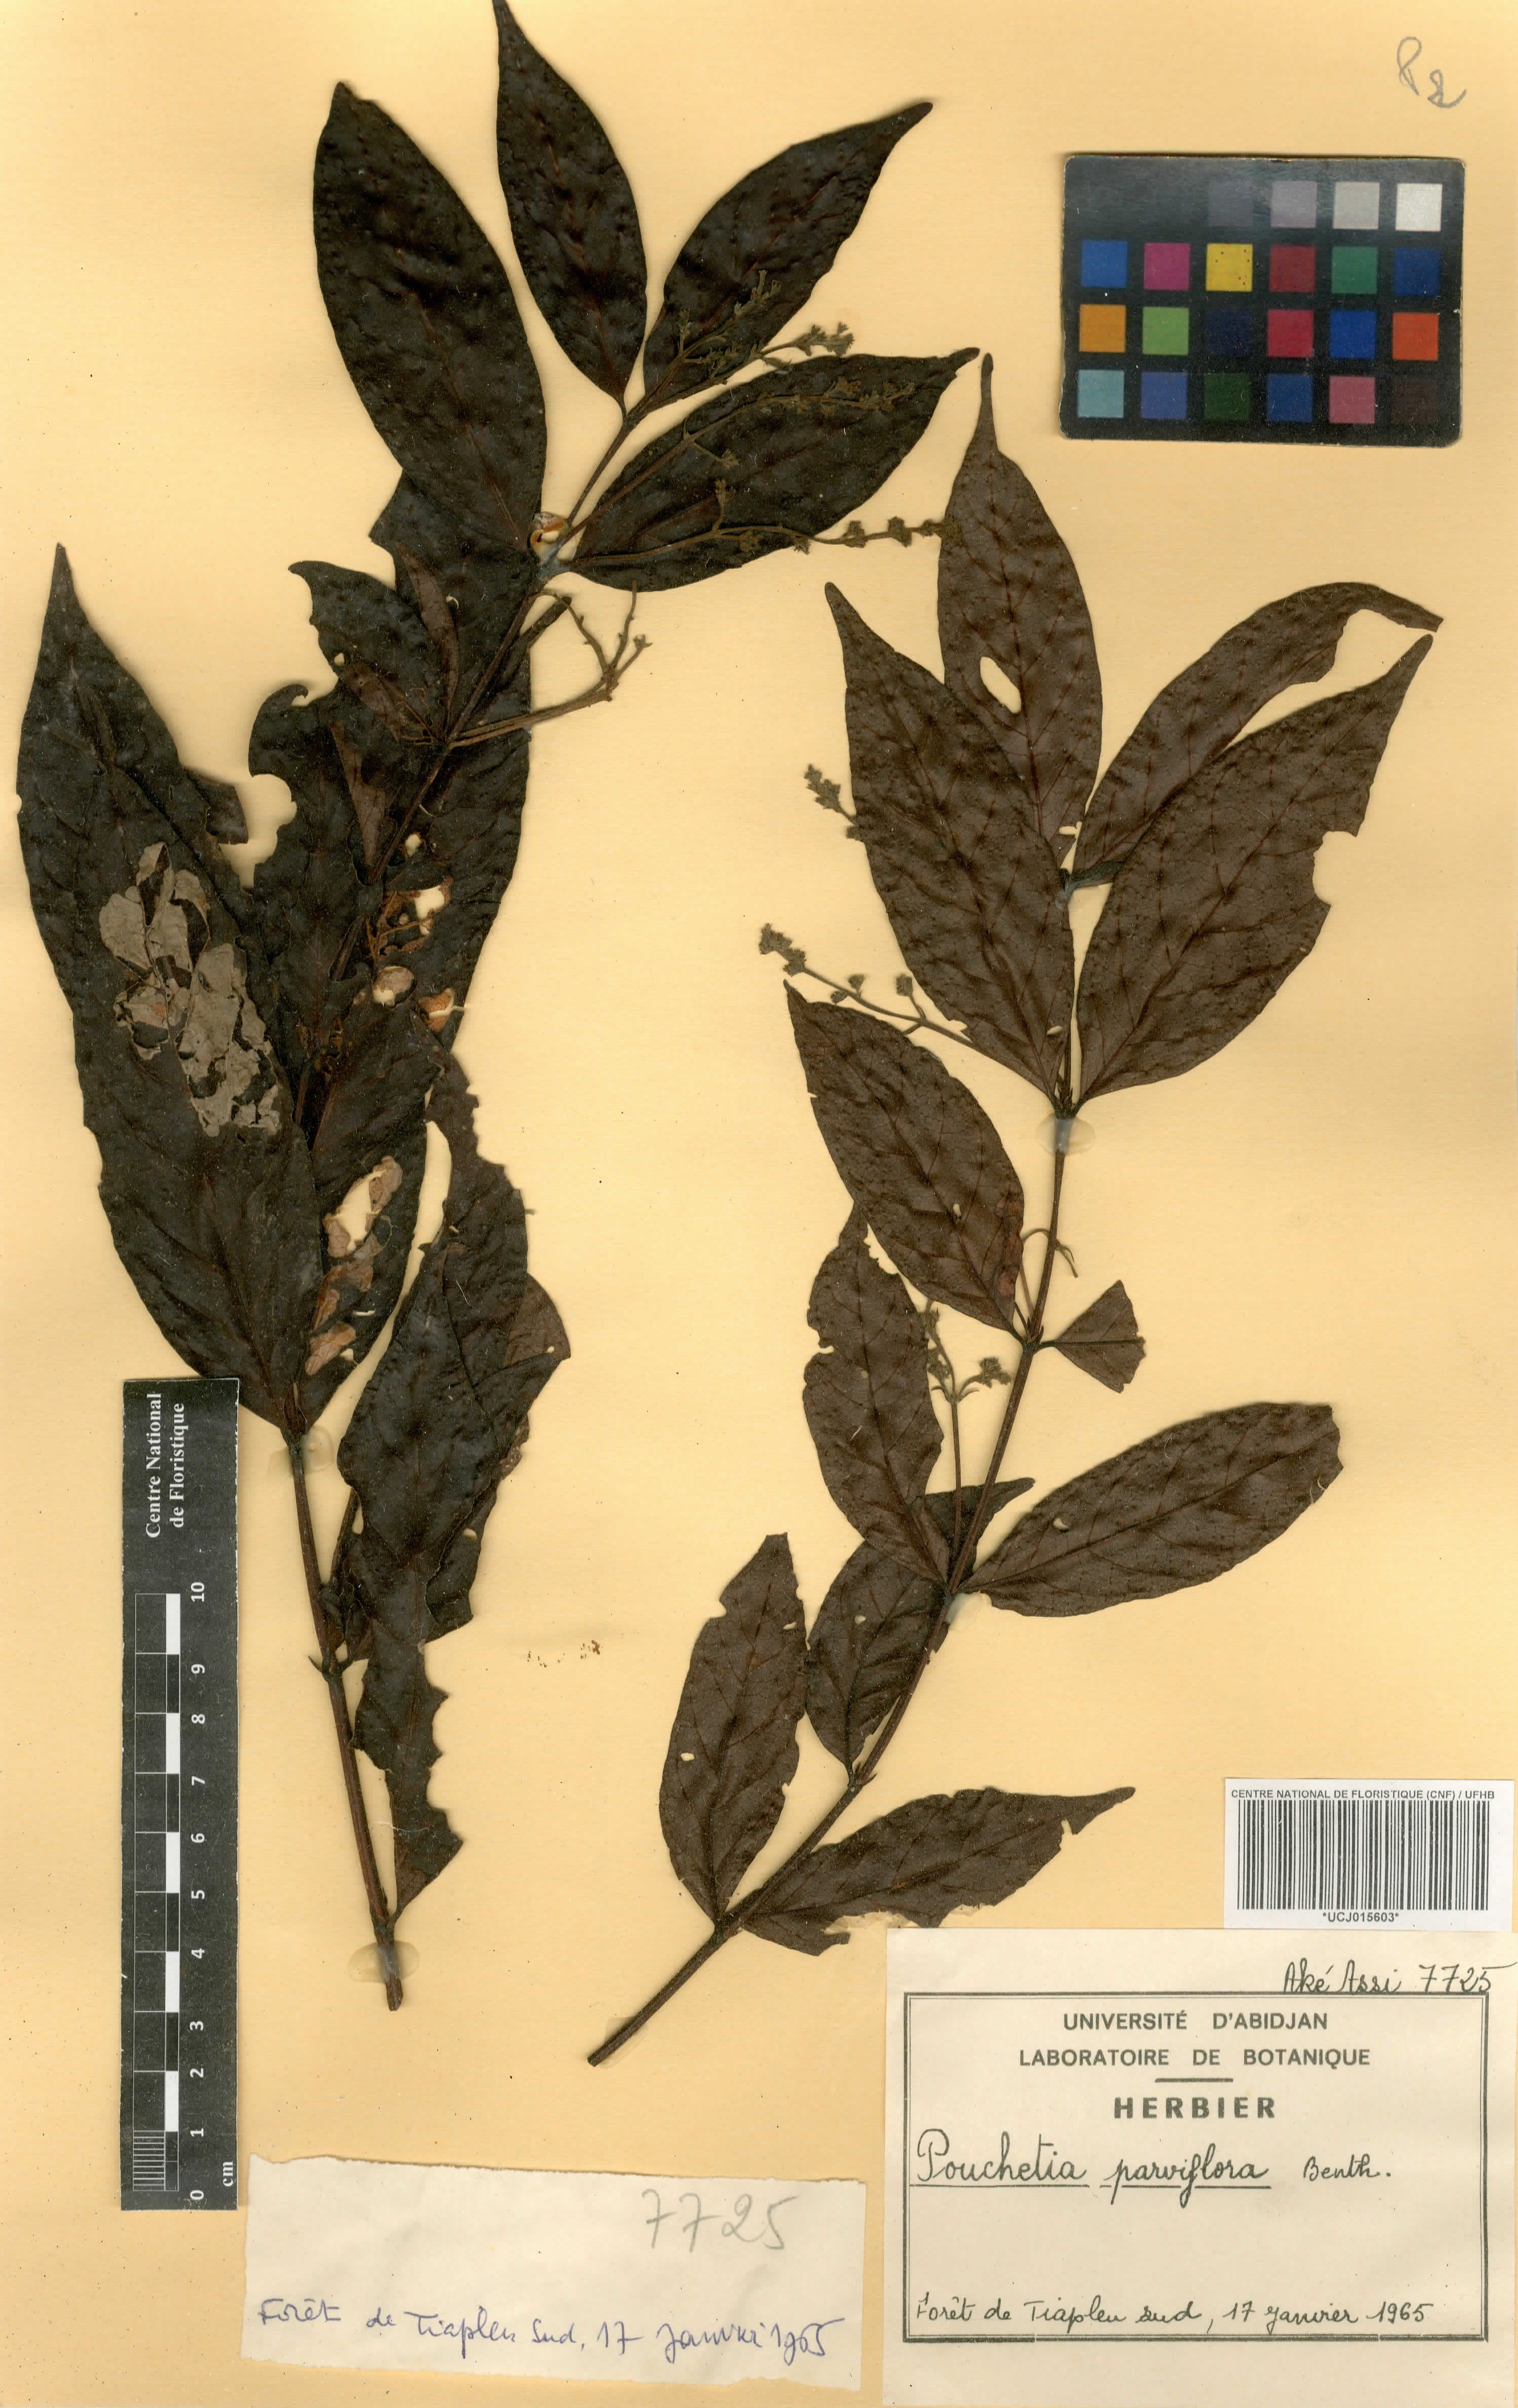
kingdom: Plantae
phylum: Tracheophyta
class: Magnoliopsida
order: Gentianales
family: Rubiaceae
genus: Pouchetia
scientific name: Pouchetia parviflora
